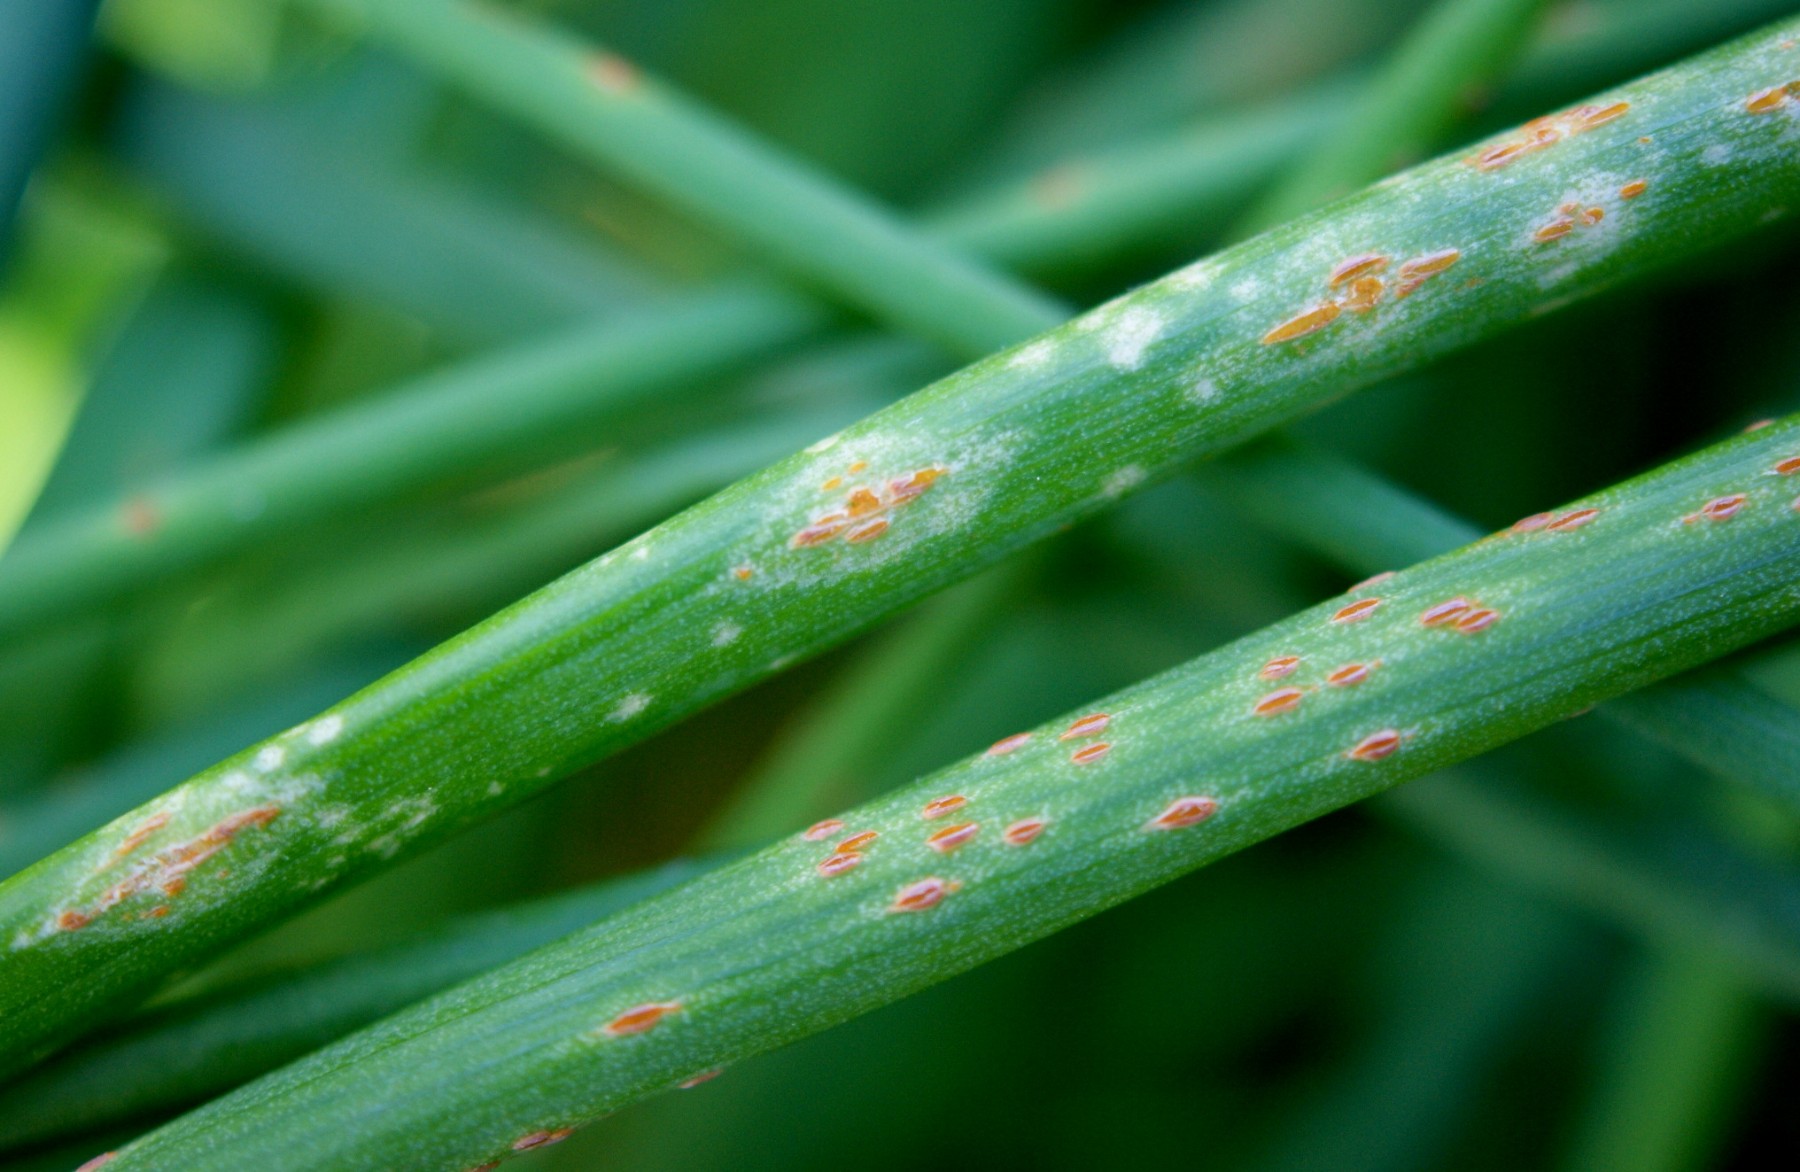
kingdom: Fungi
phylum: Basidiomycota
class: Pucciniomycetes
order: Pucciniales
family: Pucciniaceae
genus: Puccinia
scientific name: Puccinia porri
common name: Allium rust
